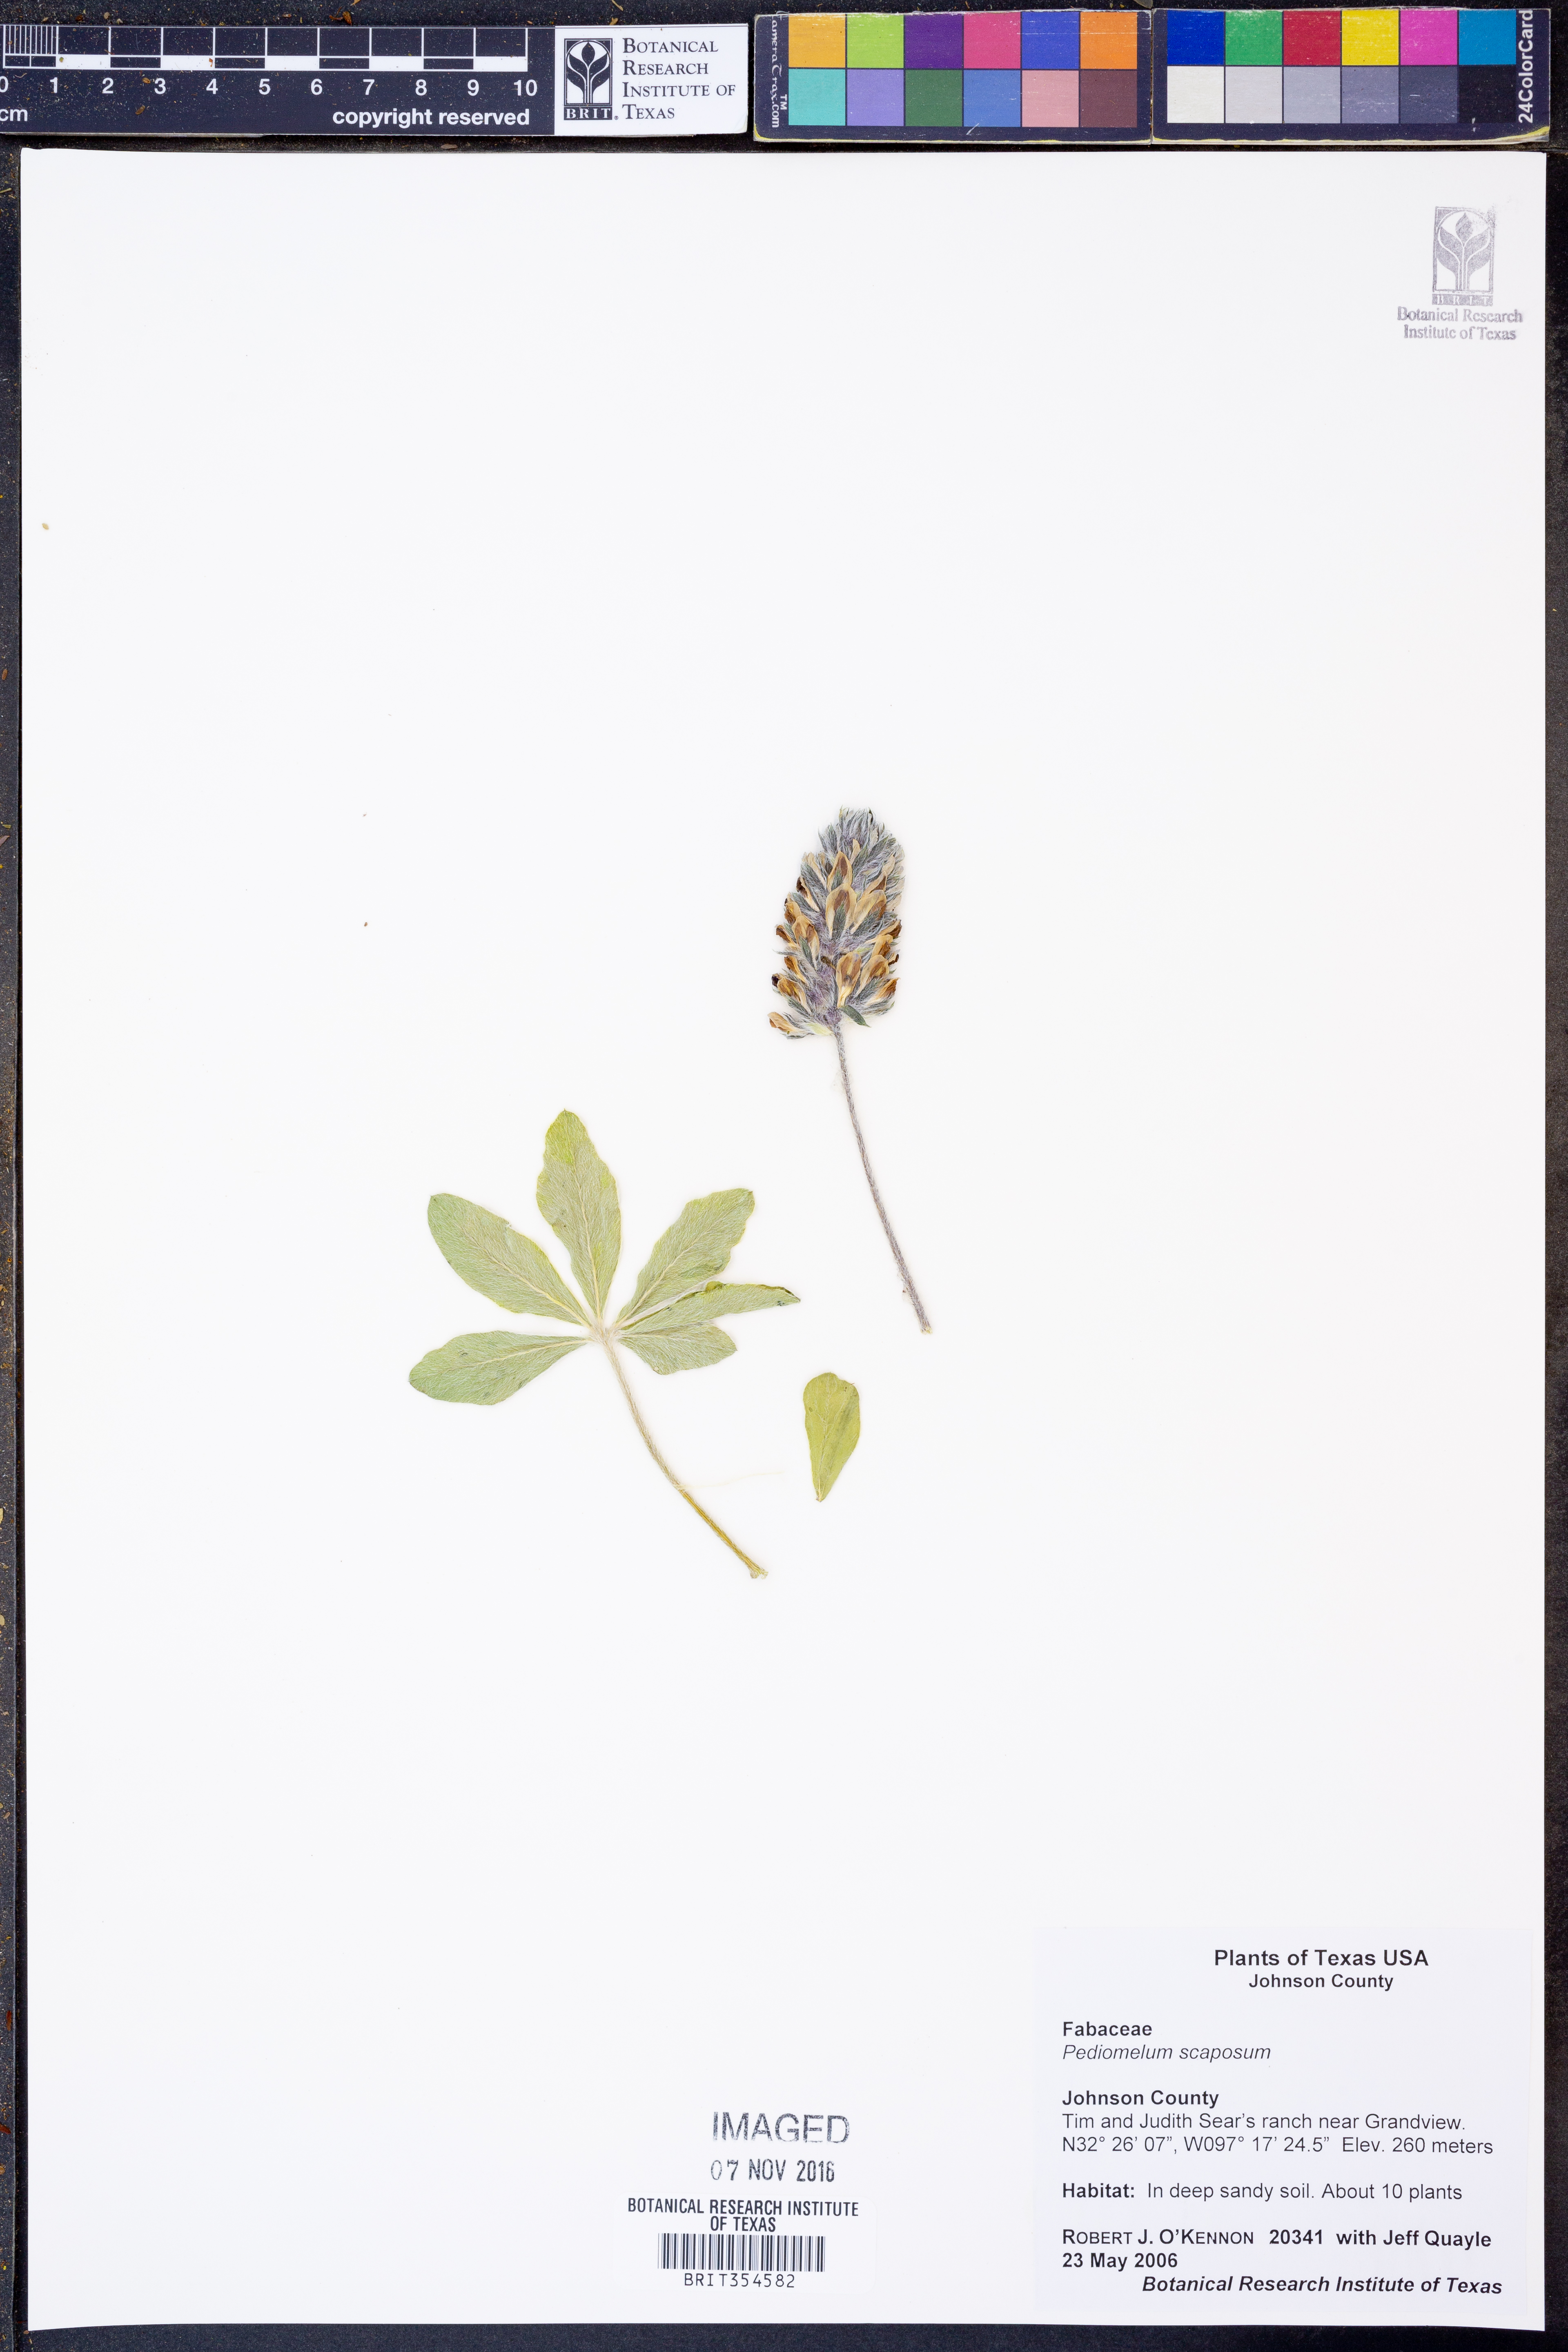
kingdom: Plantae
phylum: Tracheophyta
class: Magnoliopsida
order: Fabales
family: Fabaceae
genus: Pediomelum
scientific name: Pediomelum
